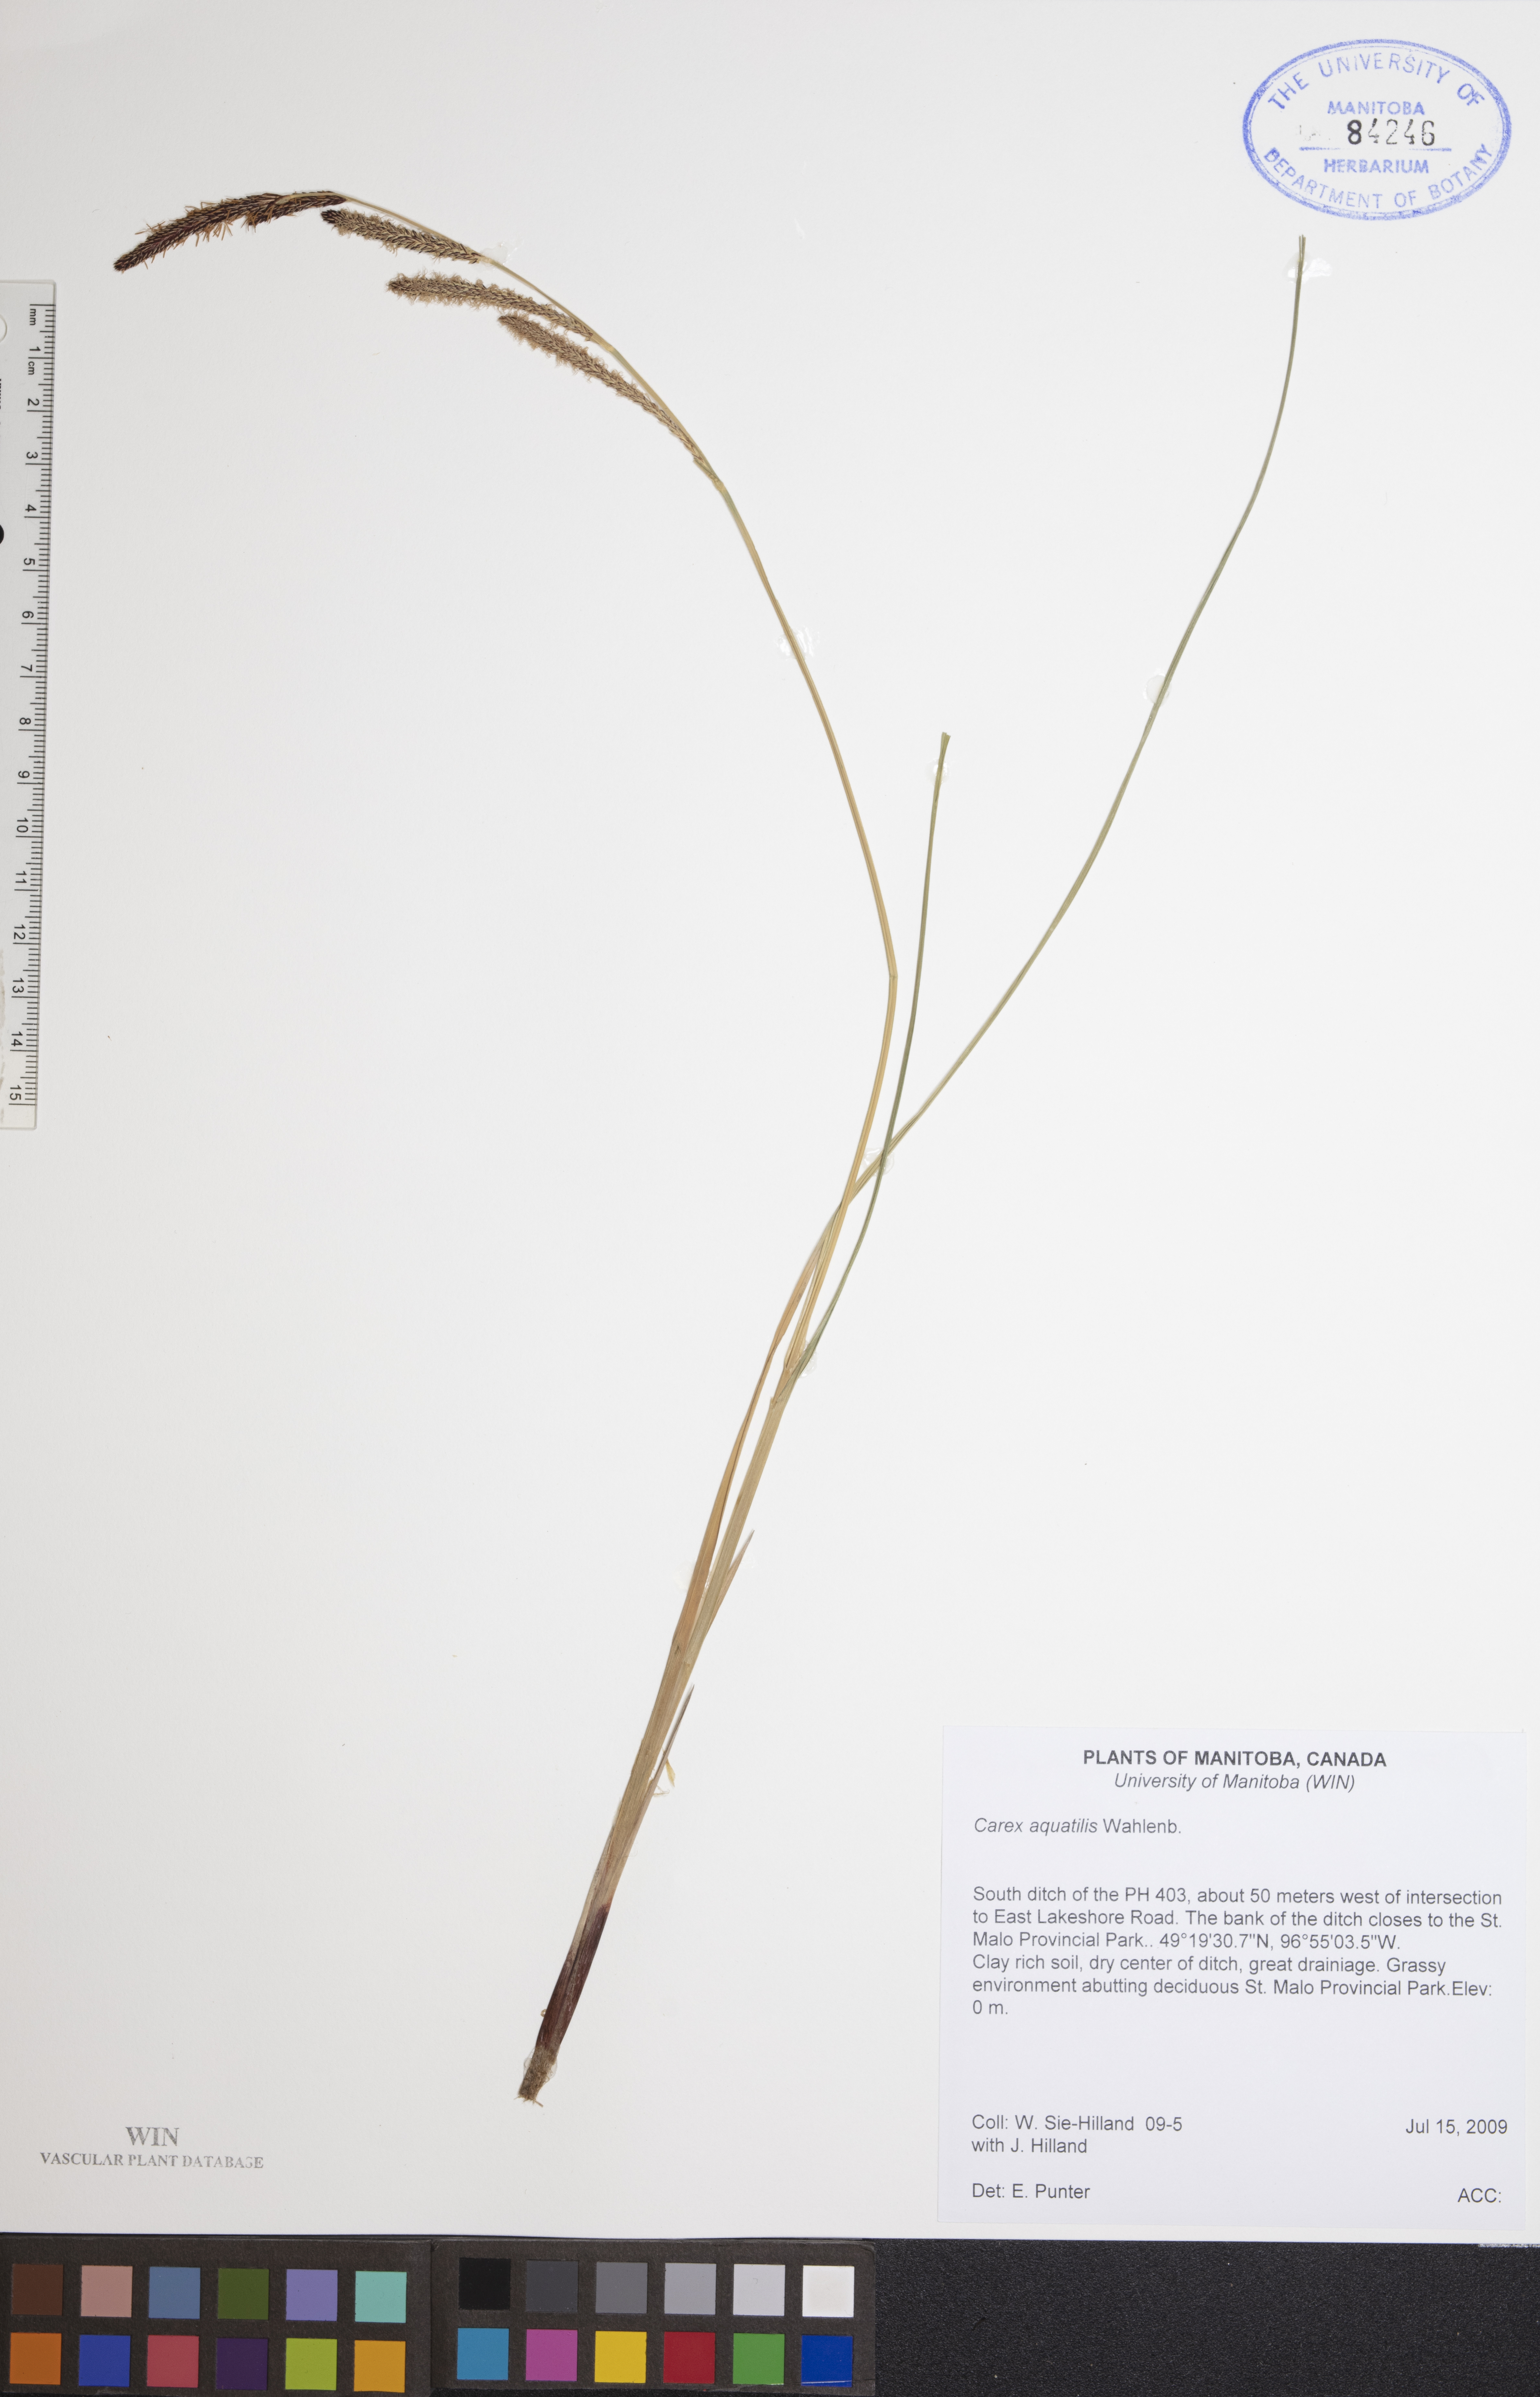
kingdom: Plantae
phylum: Tracheophyta
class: Liliopsida
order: Poales
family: Cyperaceae
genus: Carex
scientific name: Carex aquatilis
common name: Water sedge
